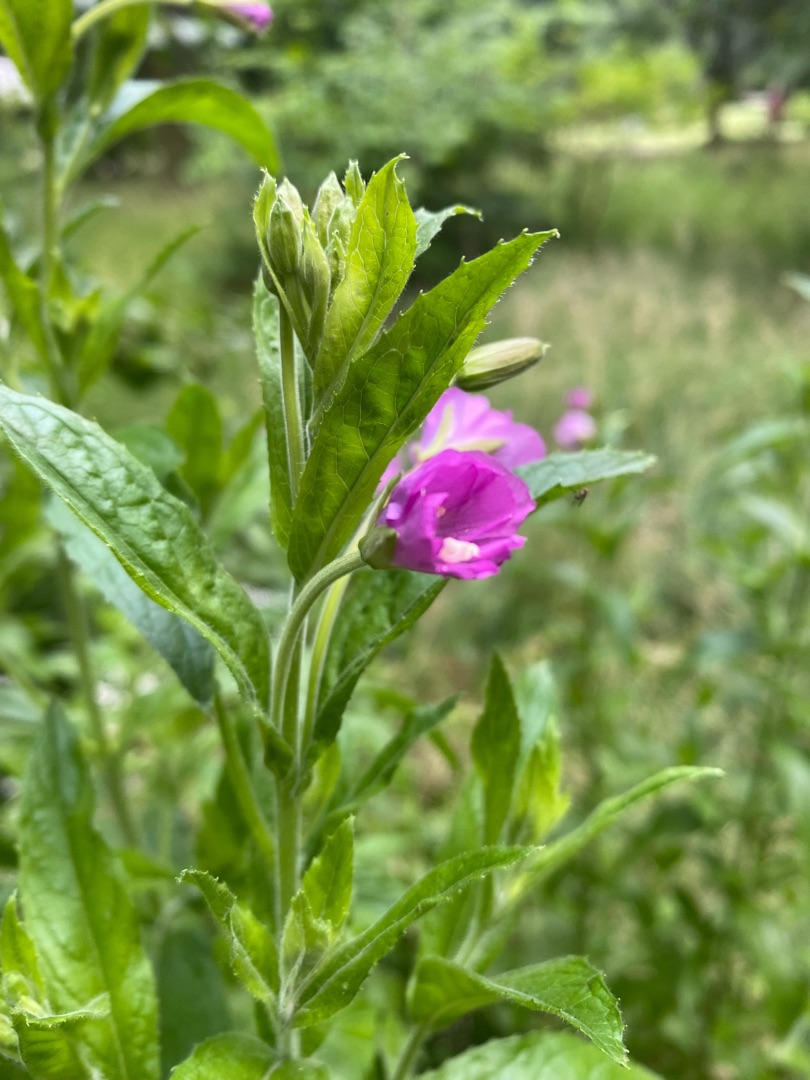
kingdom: Plantae
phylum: Tracheophyta
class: Magnoliopsida
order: Myrtales
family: Onagraceae
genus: Epilobium
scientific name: Epilobium hirsutum
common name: Lådden dueurt
